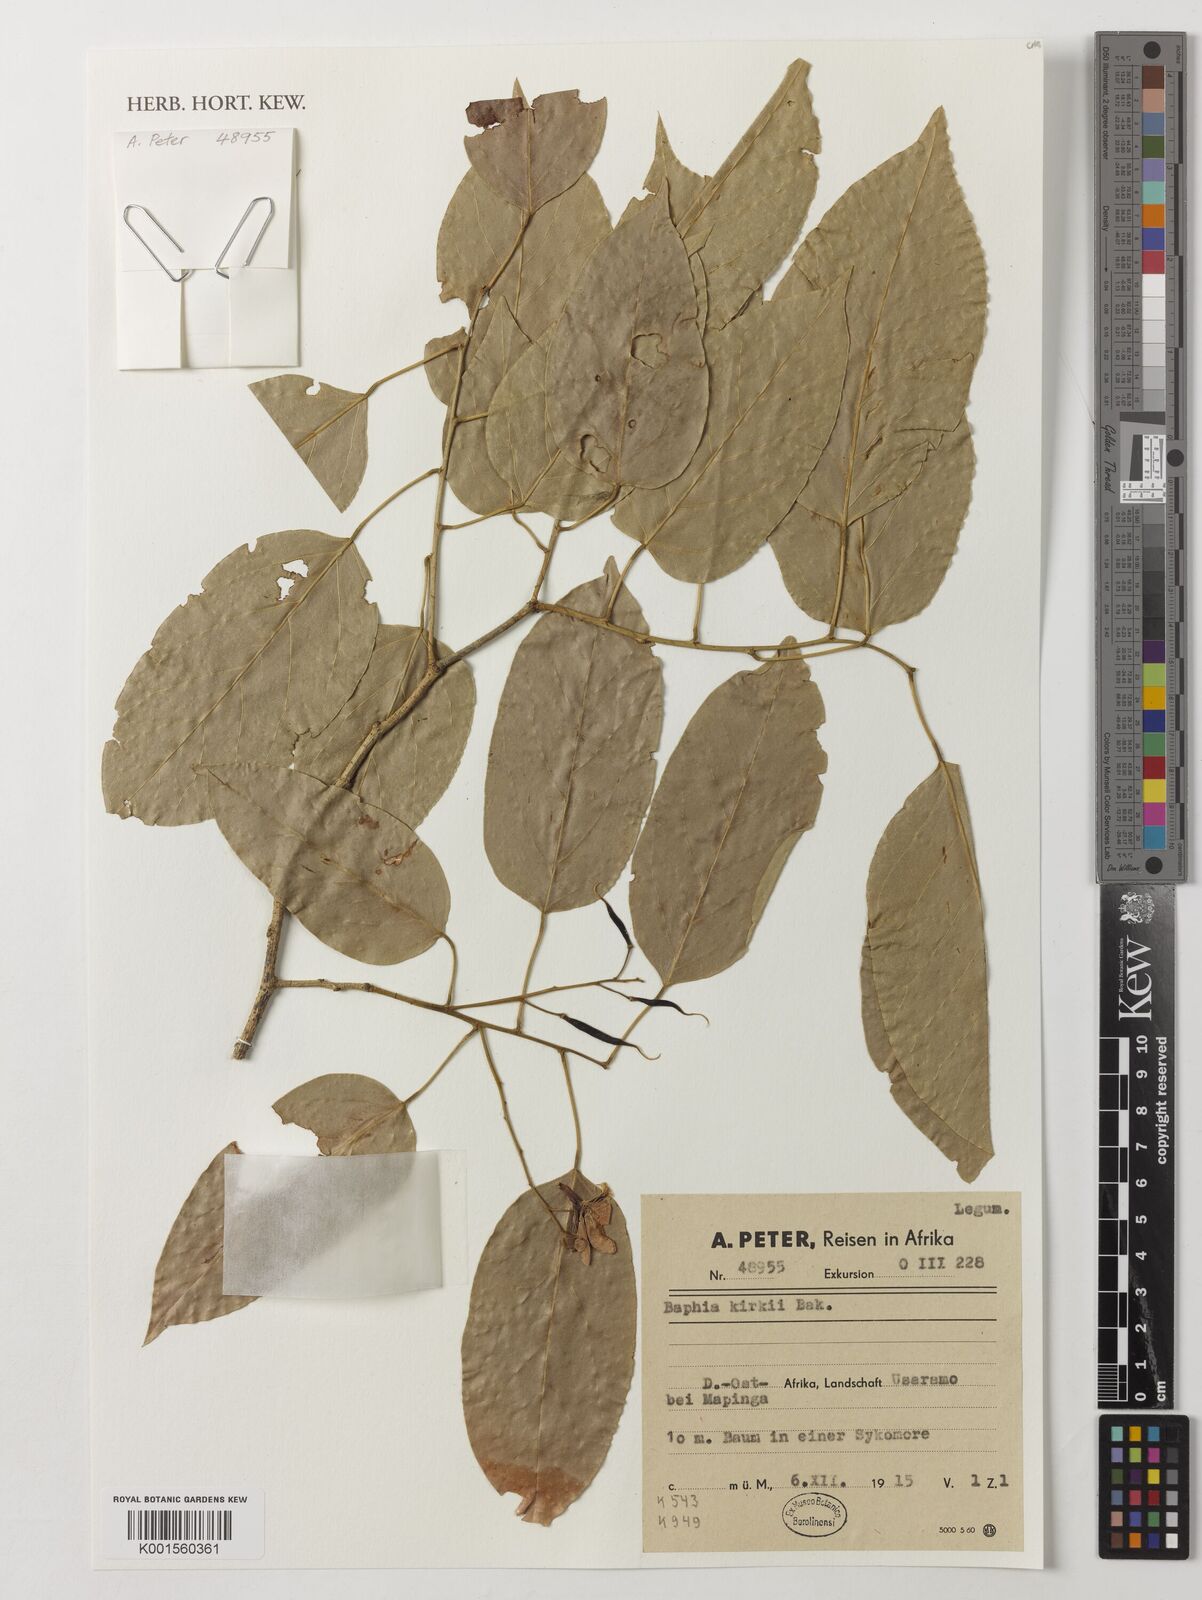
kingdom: Plantae
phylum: Tracheophyta
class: Magnoliopsida
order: Fabales
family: Fabaceae
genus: Baphia
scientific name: Baphia kirkii
